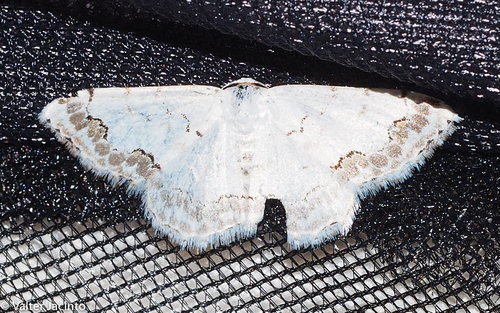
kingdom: Animalia
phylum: Arthropoda
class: Insecta
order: Lepidoptera
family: Geometridae
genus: Scopula
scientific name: Scopula ornata
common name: Lace border
